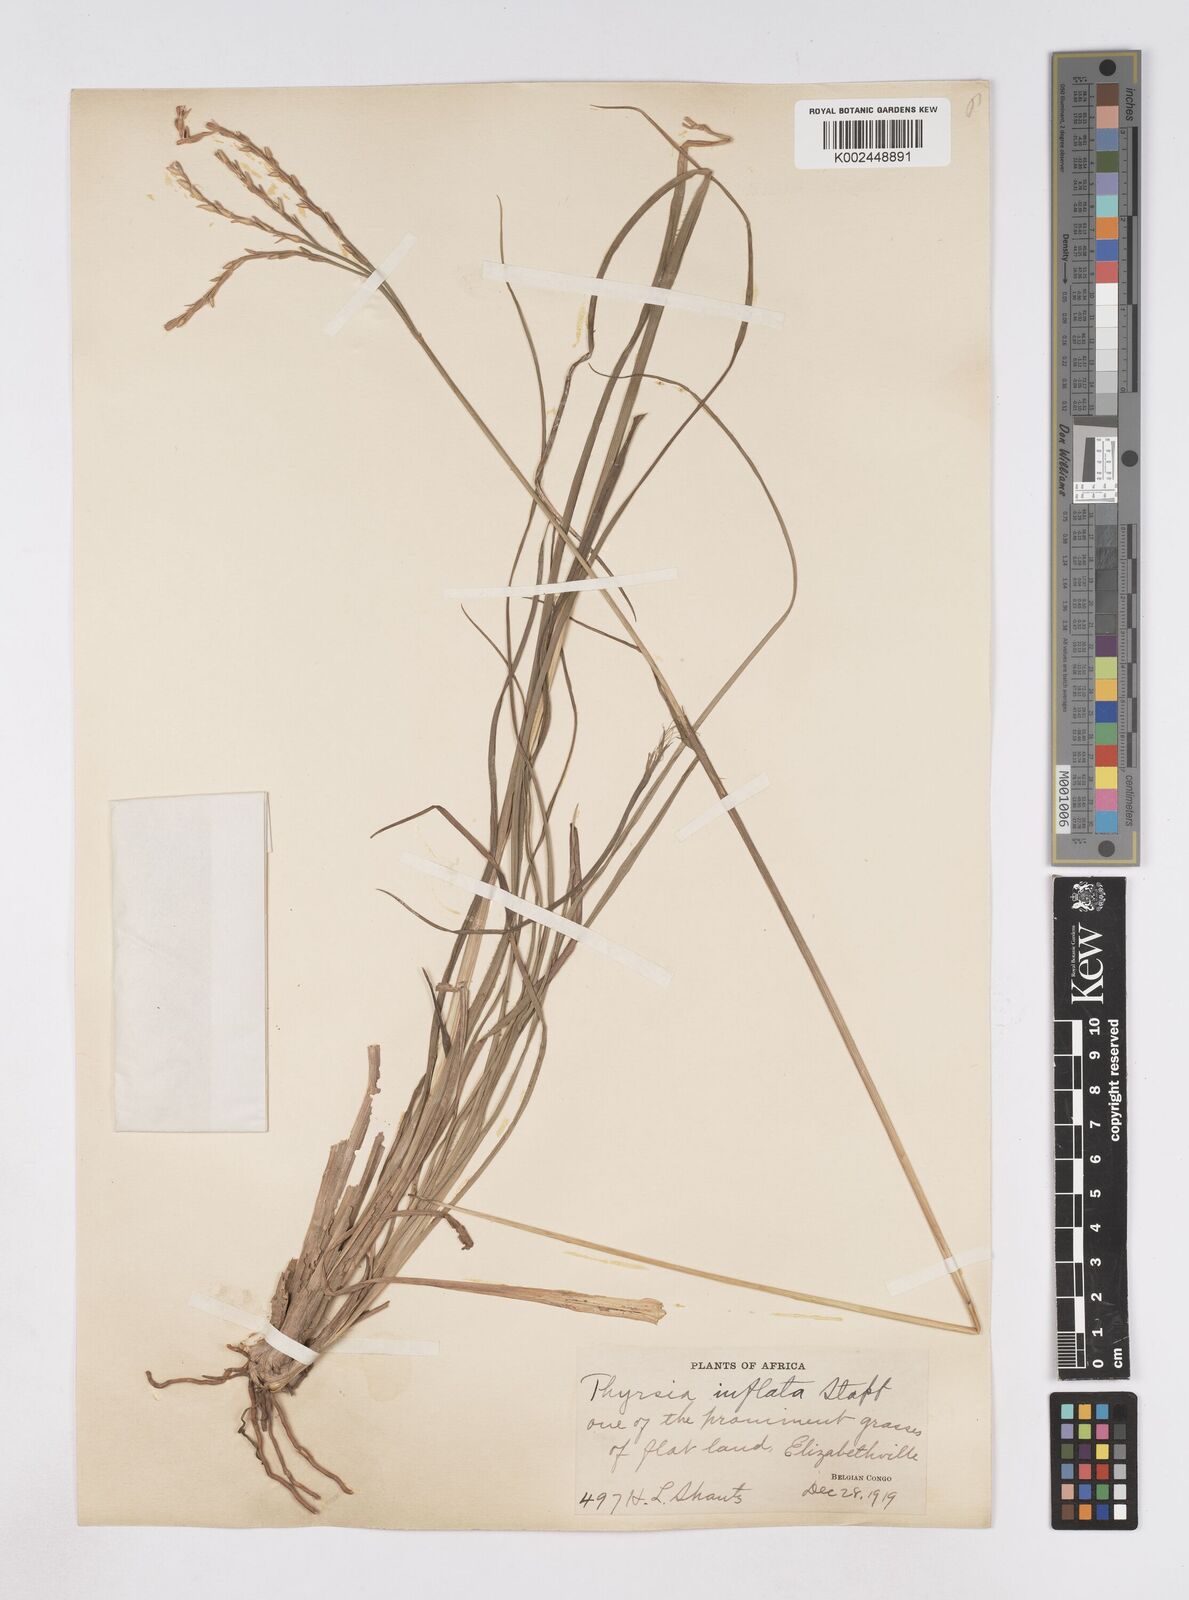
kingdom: Plantae
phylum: Tracheophyta
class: Liliopsida
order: Poales
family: Poaceae
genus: Thyrsia
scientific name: Thyrsia huillensis
